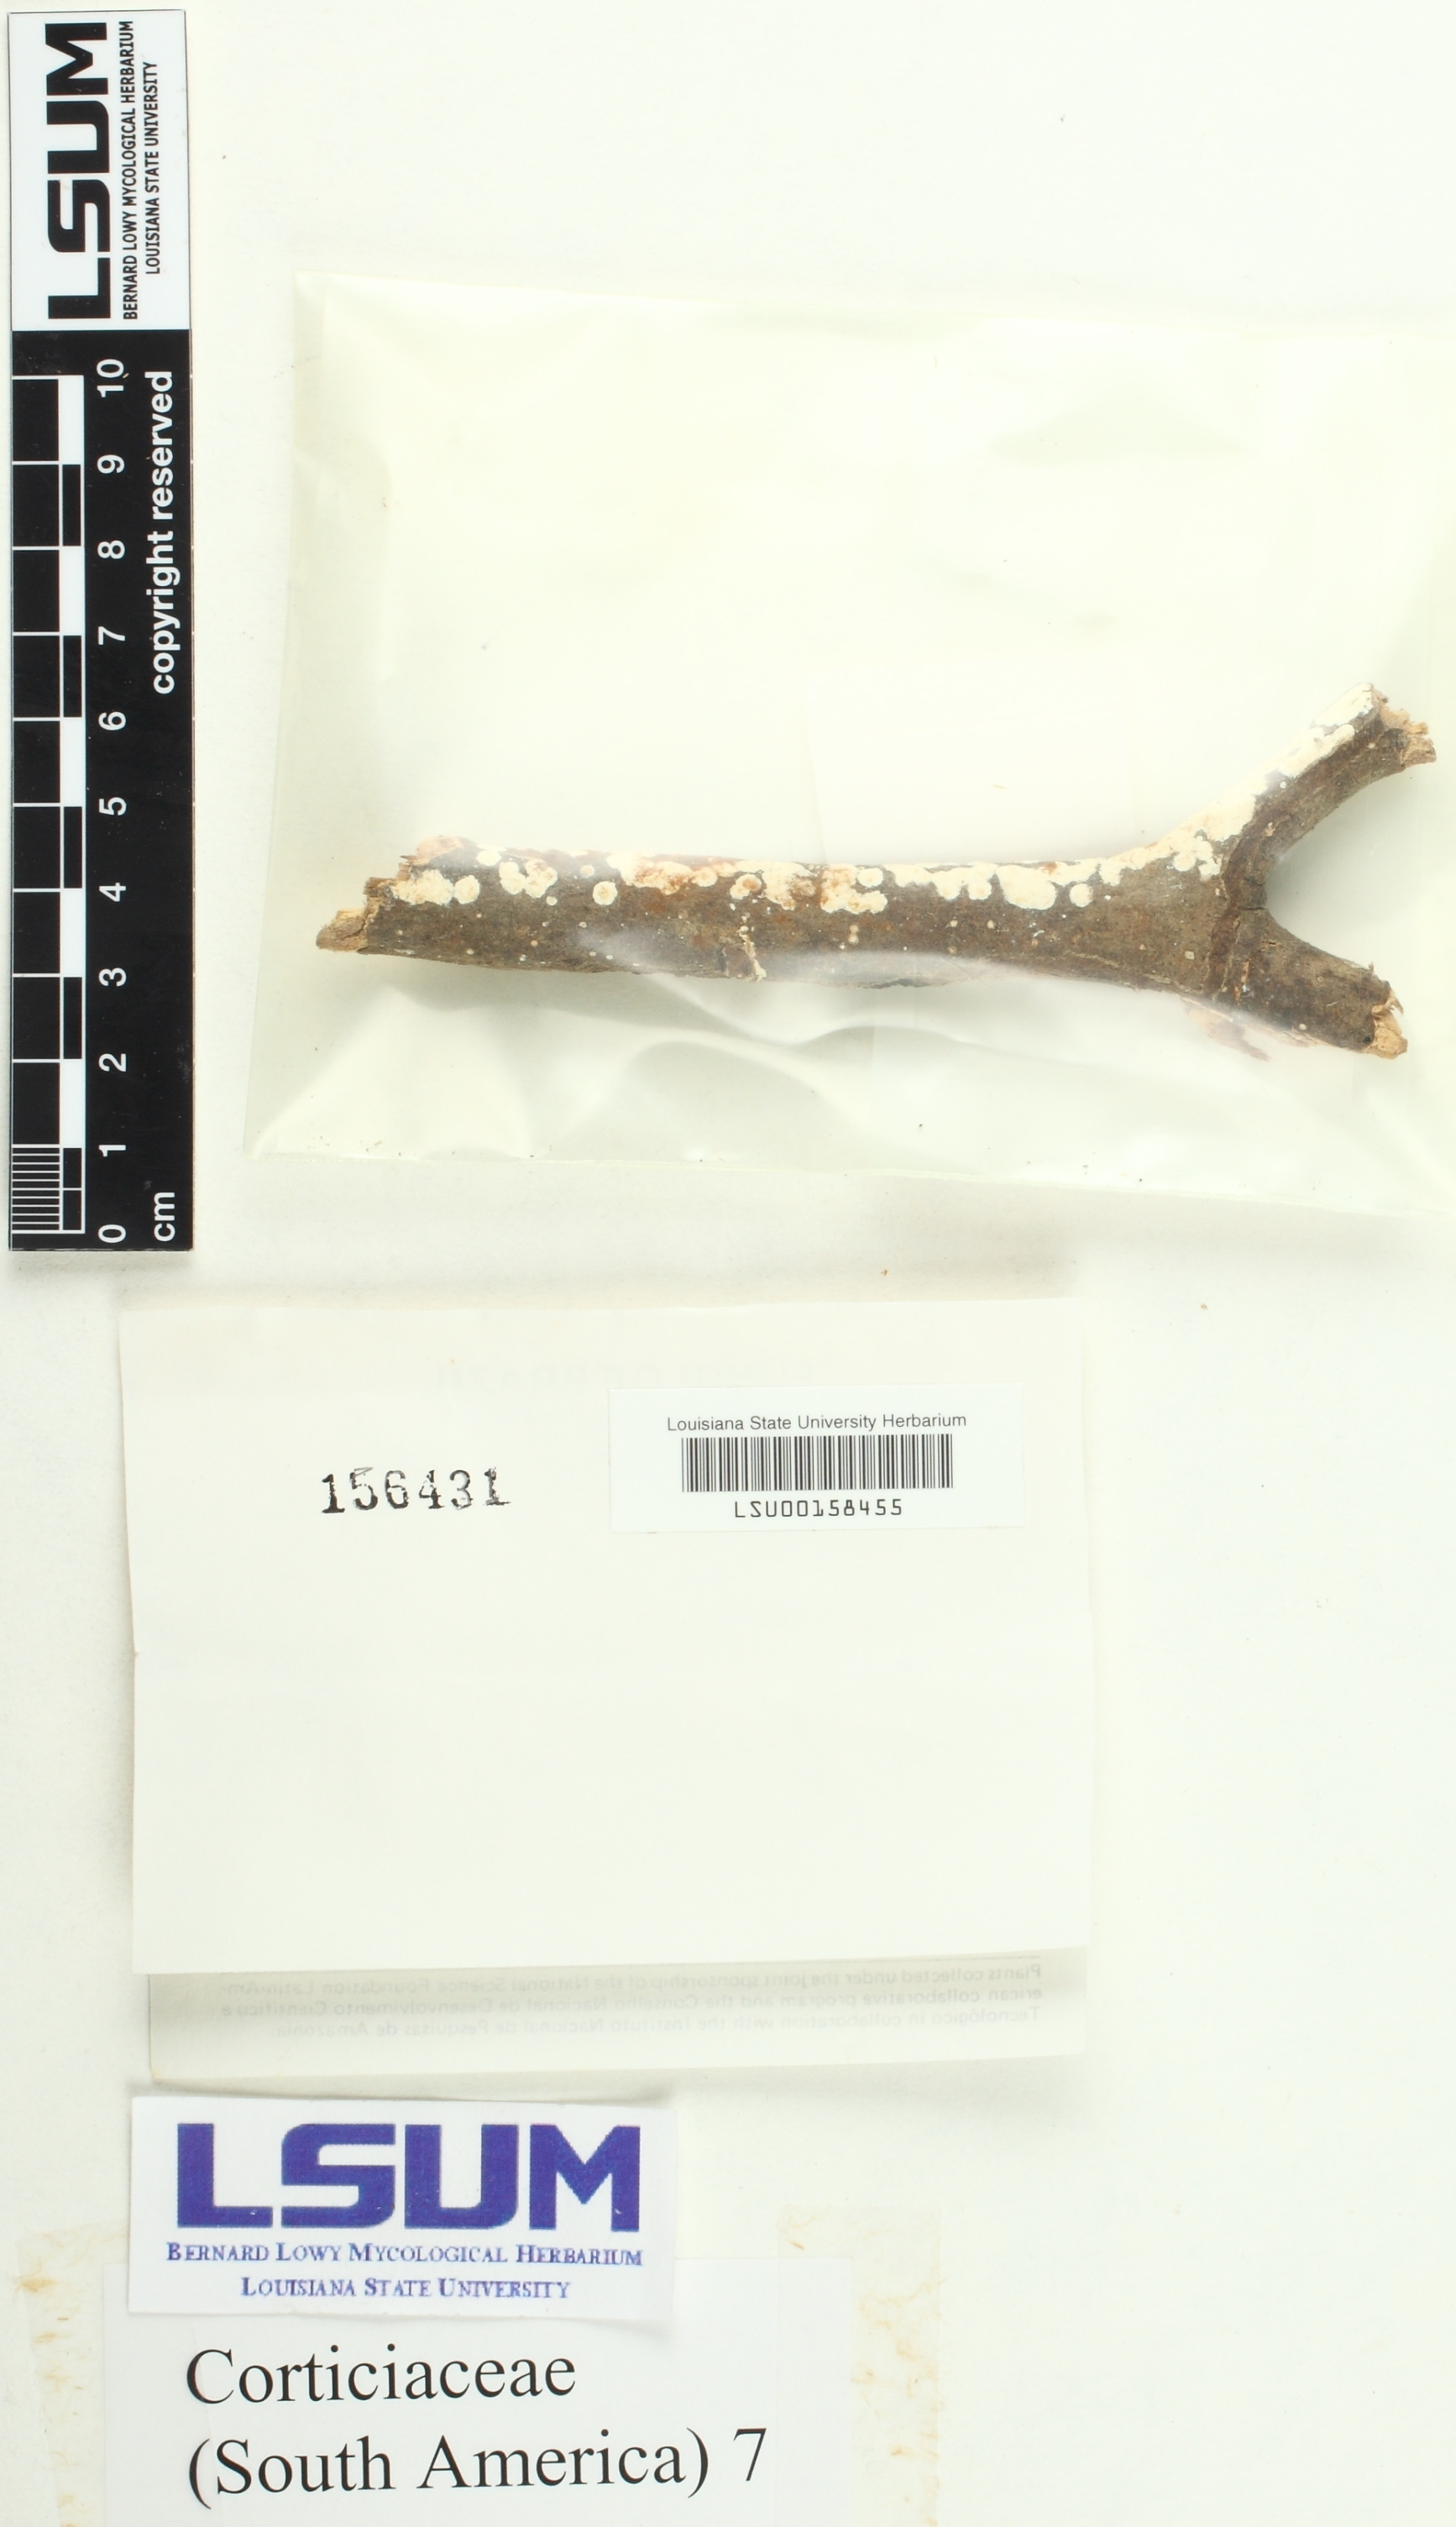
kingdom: Fungi
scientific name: Fungi
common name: Fungi
